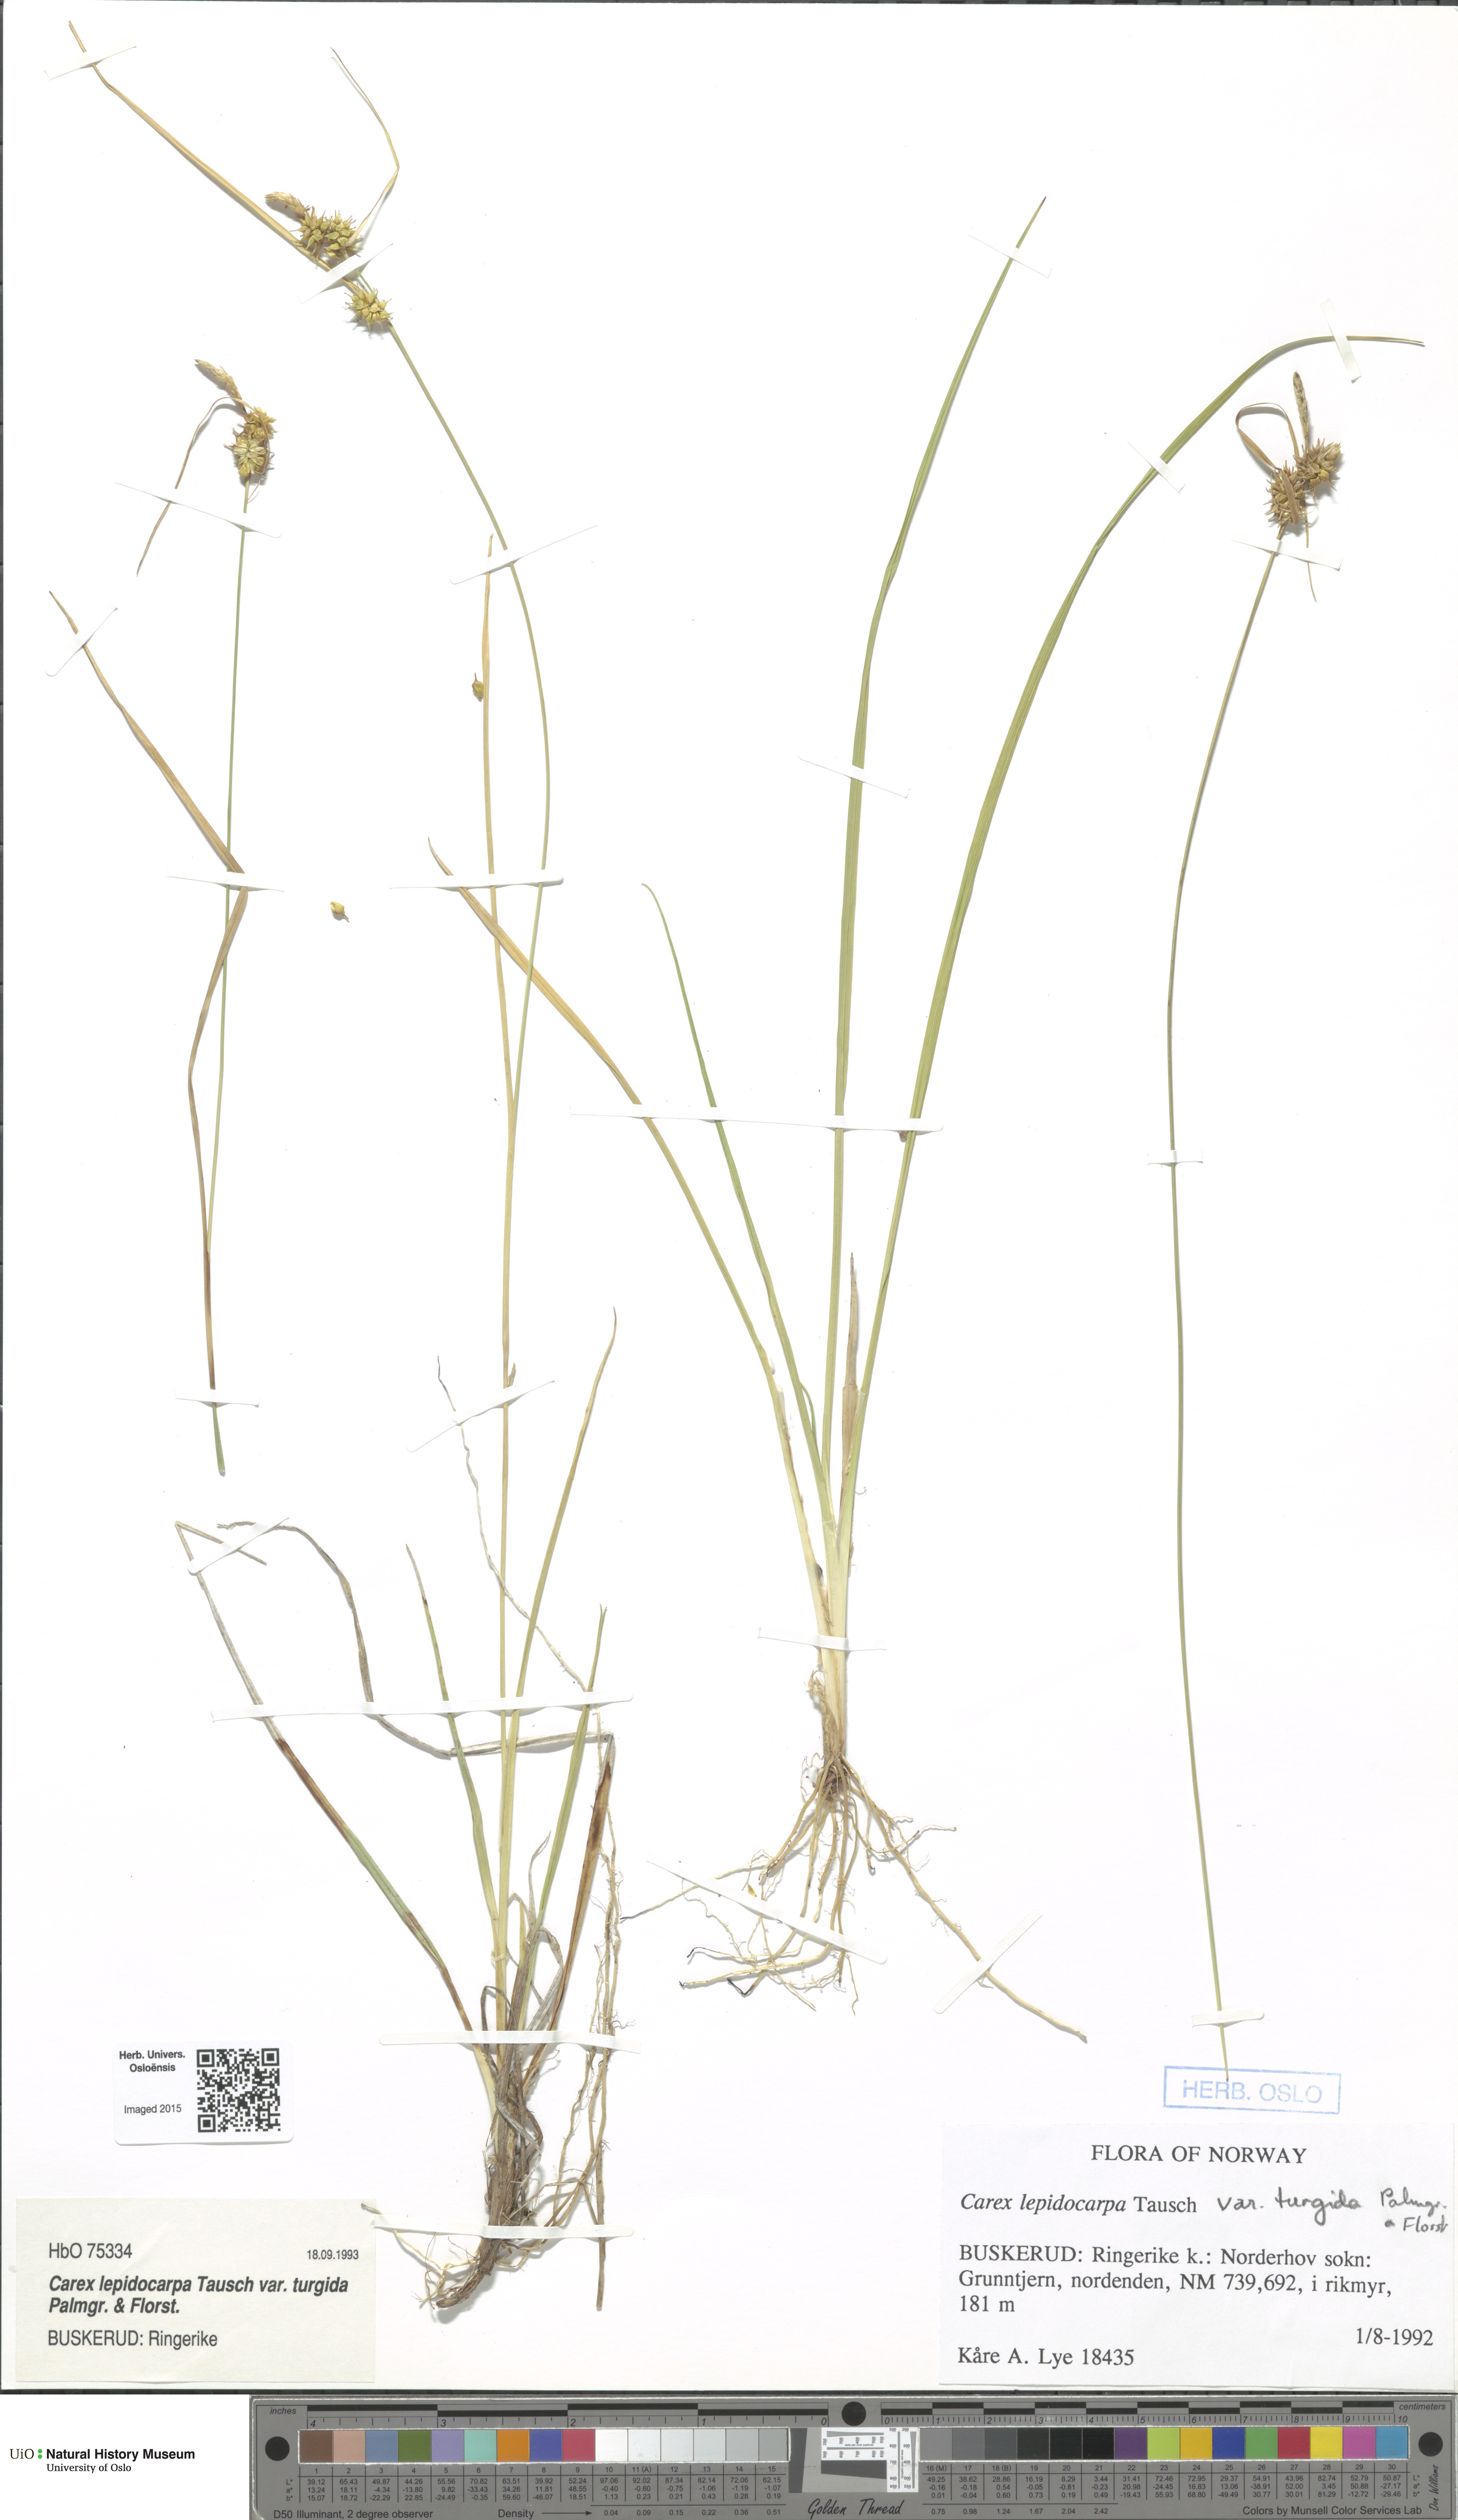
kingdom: Plantae
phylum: Tracheophyta
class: Liliopsida
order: Poales
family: Cyperaceae
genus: Carex
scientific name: Carex lepidocarpa
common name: Long-stalked yellow-sedge
